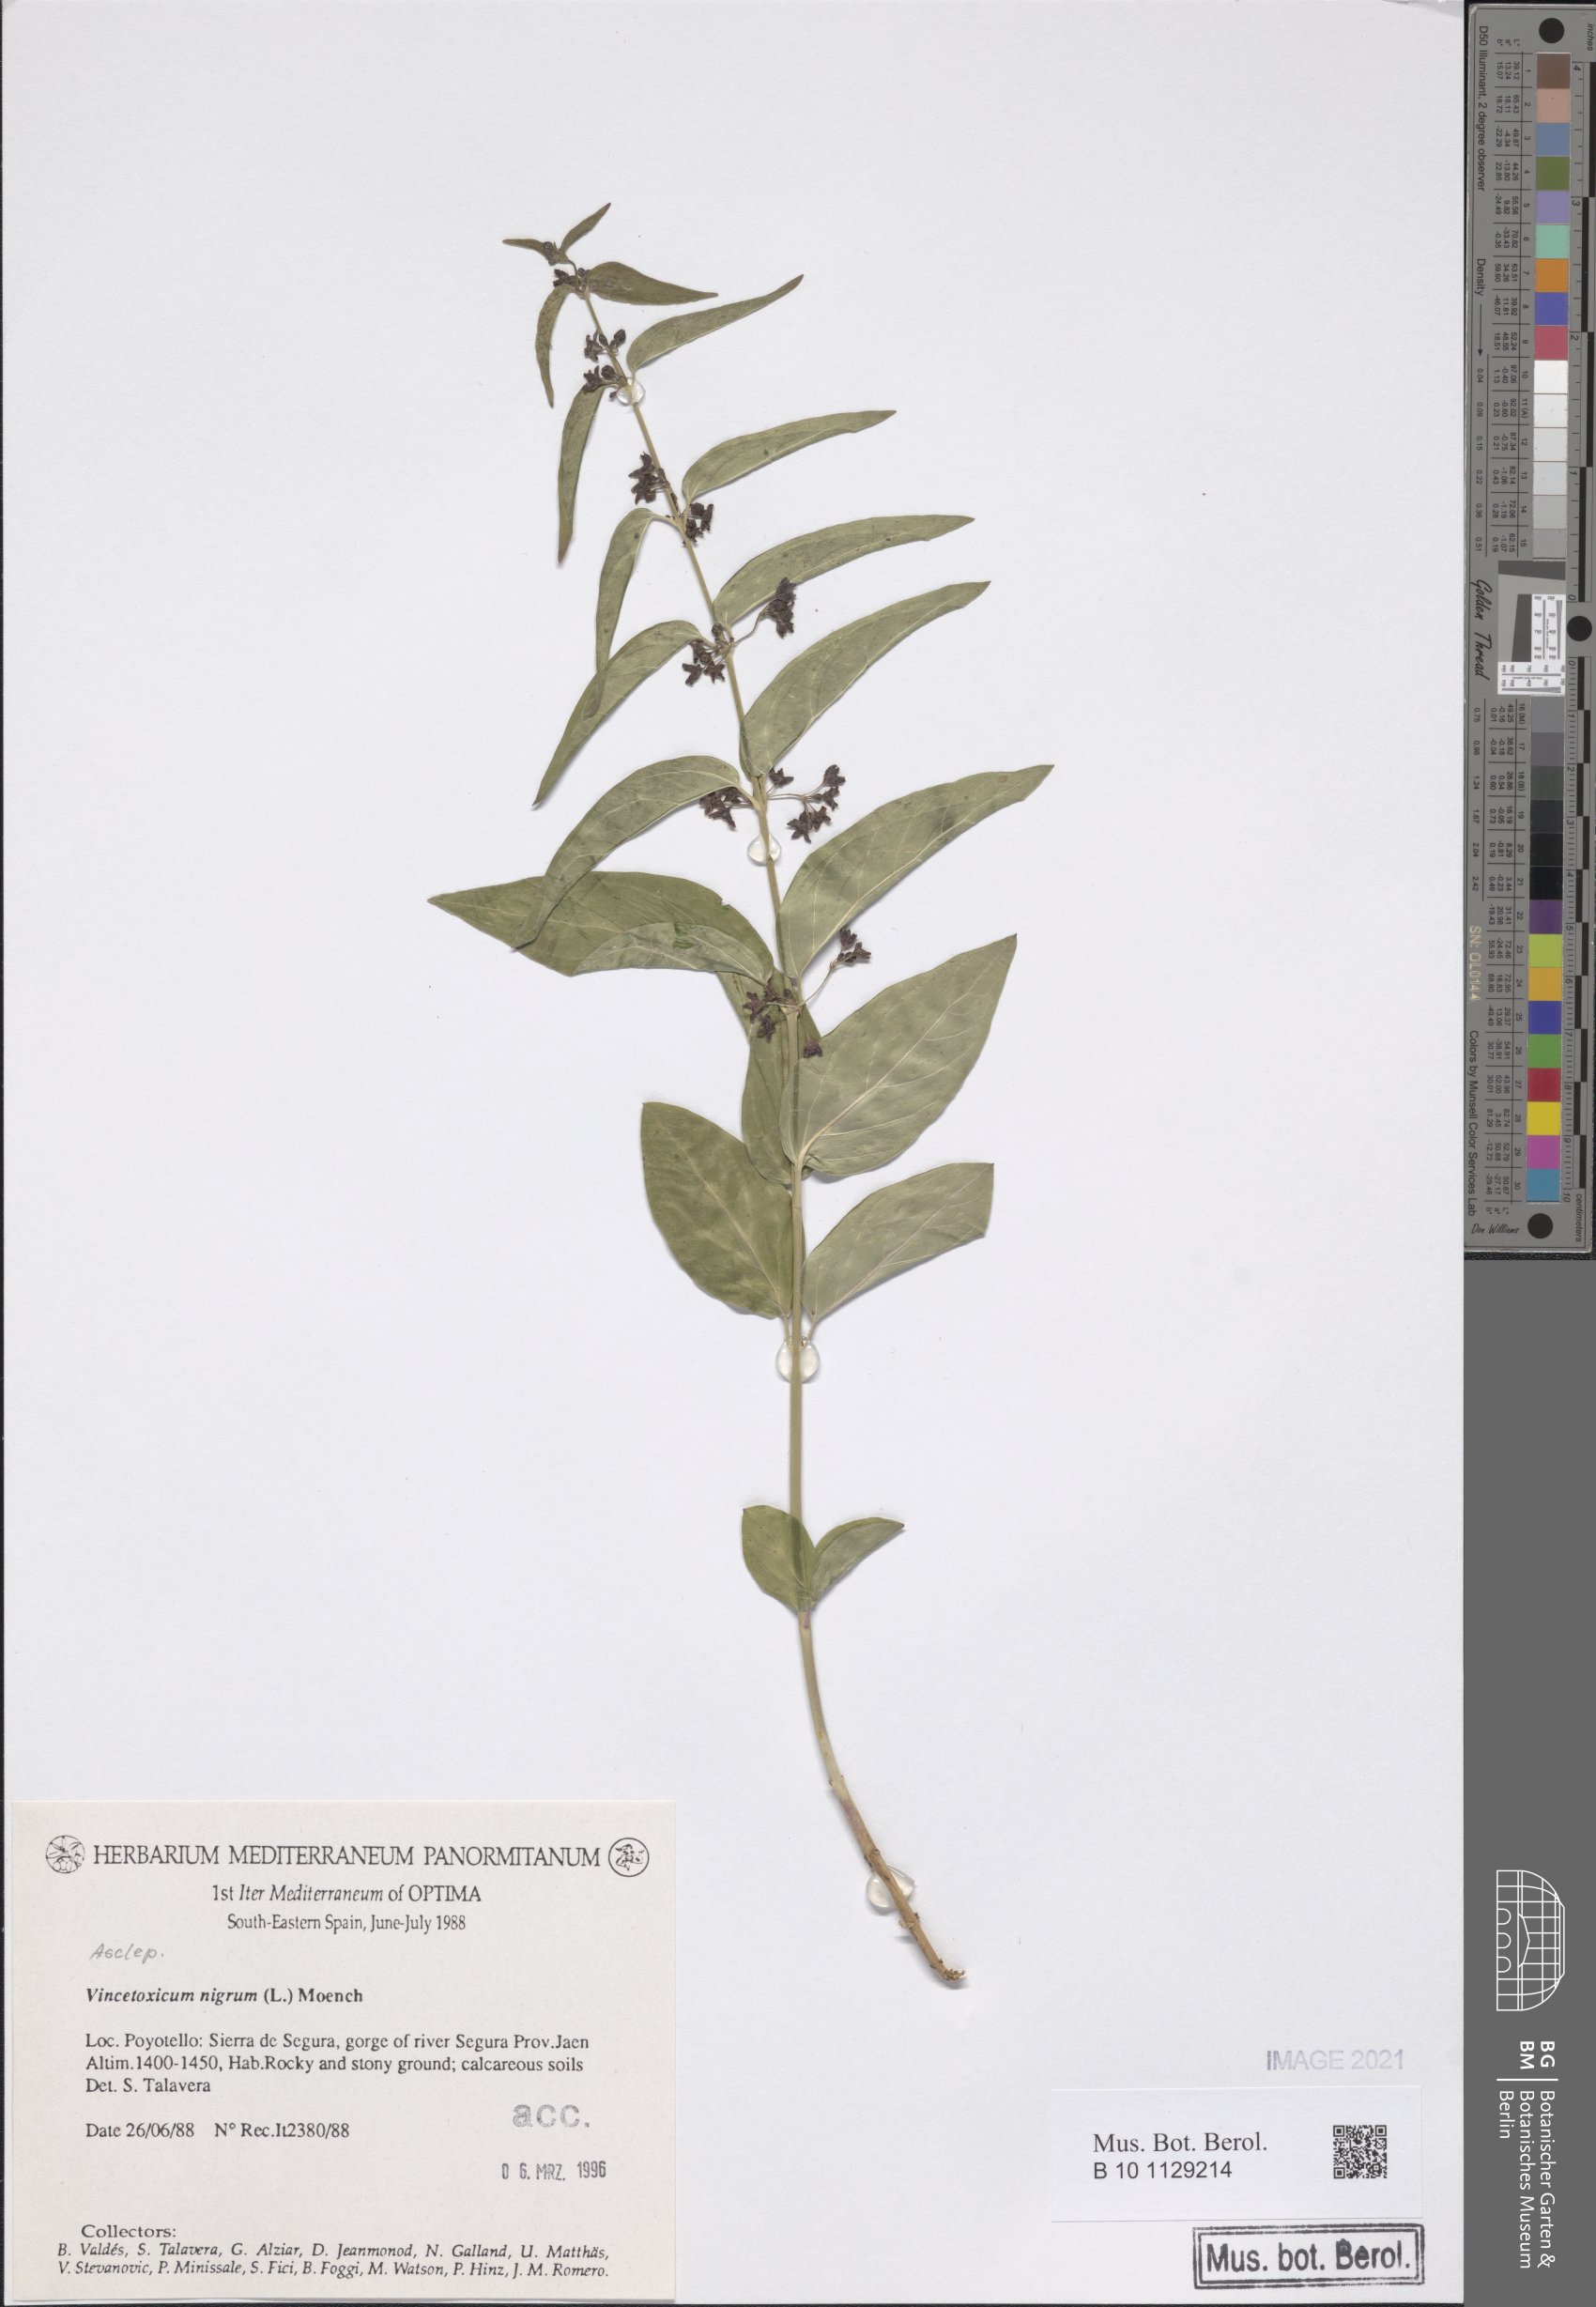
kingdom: Plantae
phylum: Tracheophyta
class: Magnoliopsida
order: Gentianales
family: Apocynaceae
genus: Vincetoxicum
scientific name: Vincetoxicum nigrum
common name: Black swallow-wort
